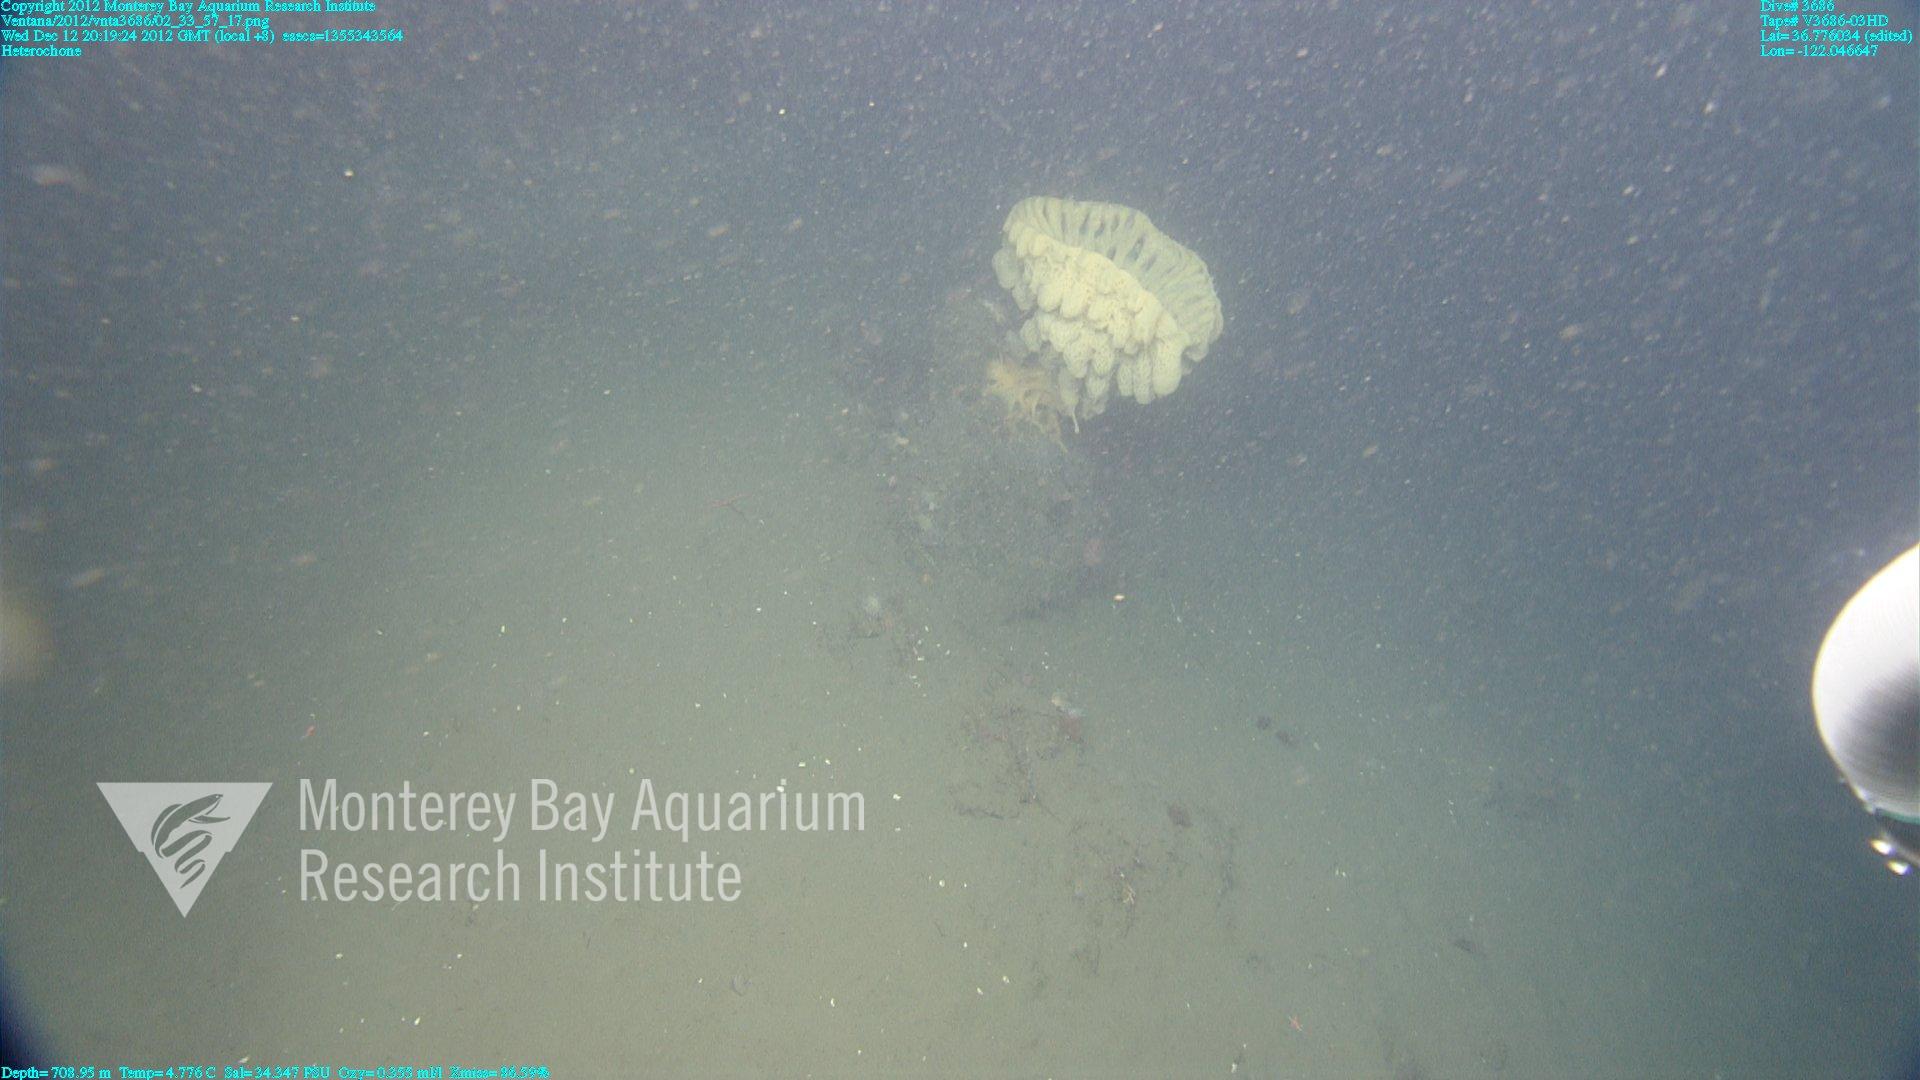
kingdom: Animalia
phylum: Porifera
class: Hexactinellida
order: Sceptrulophora
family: Aphrocallistidae
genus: Heterochone
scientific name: Heterochone
